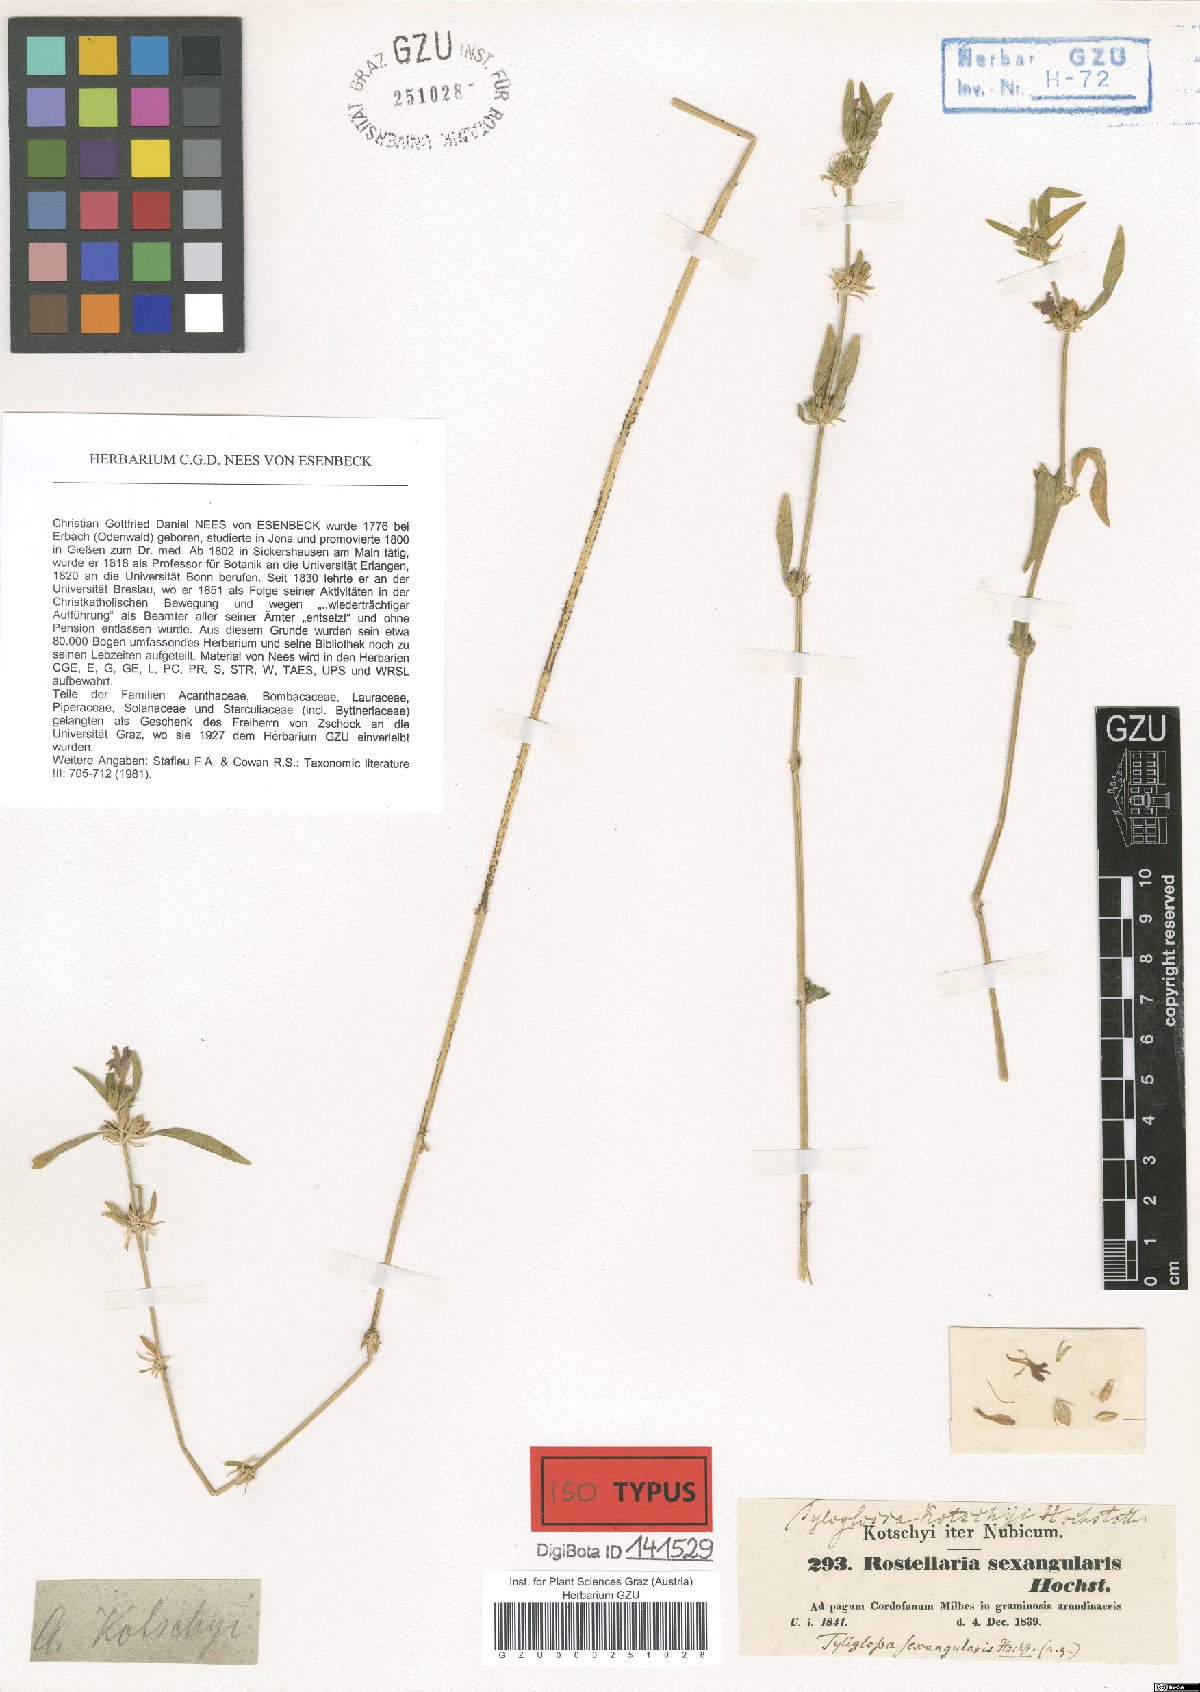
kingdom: Plantae
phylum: Tracheophyta
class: Magnoliopsida
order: Lamiales
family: Acanthaceae
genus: Justicia
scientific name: Justicia ladanoides
